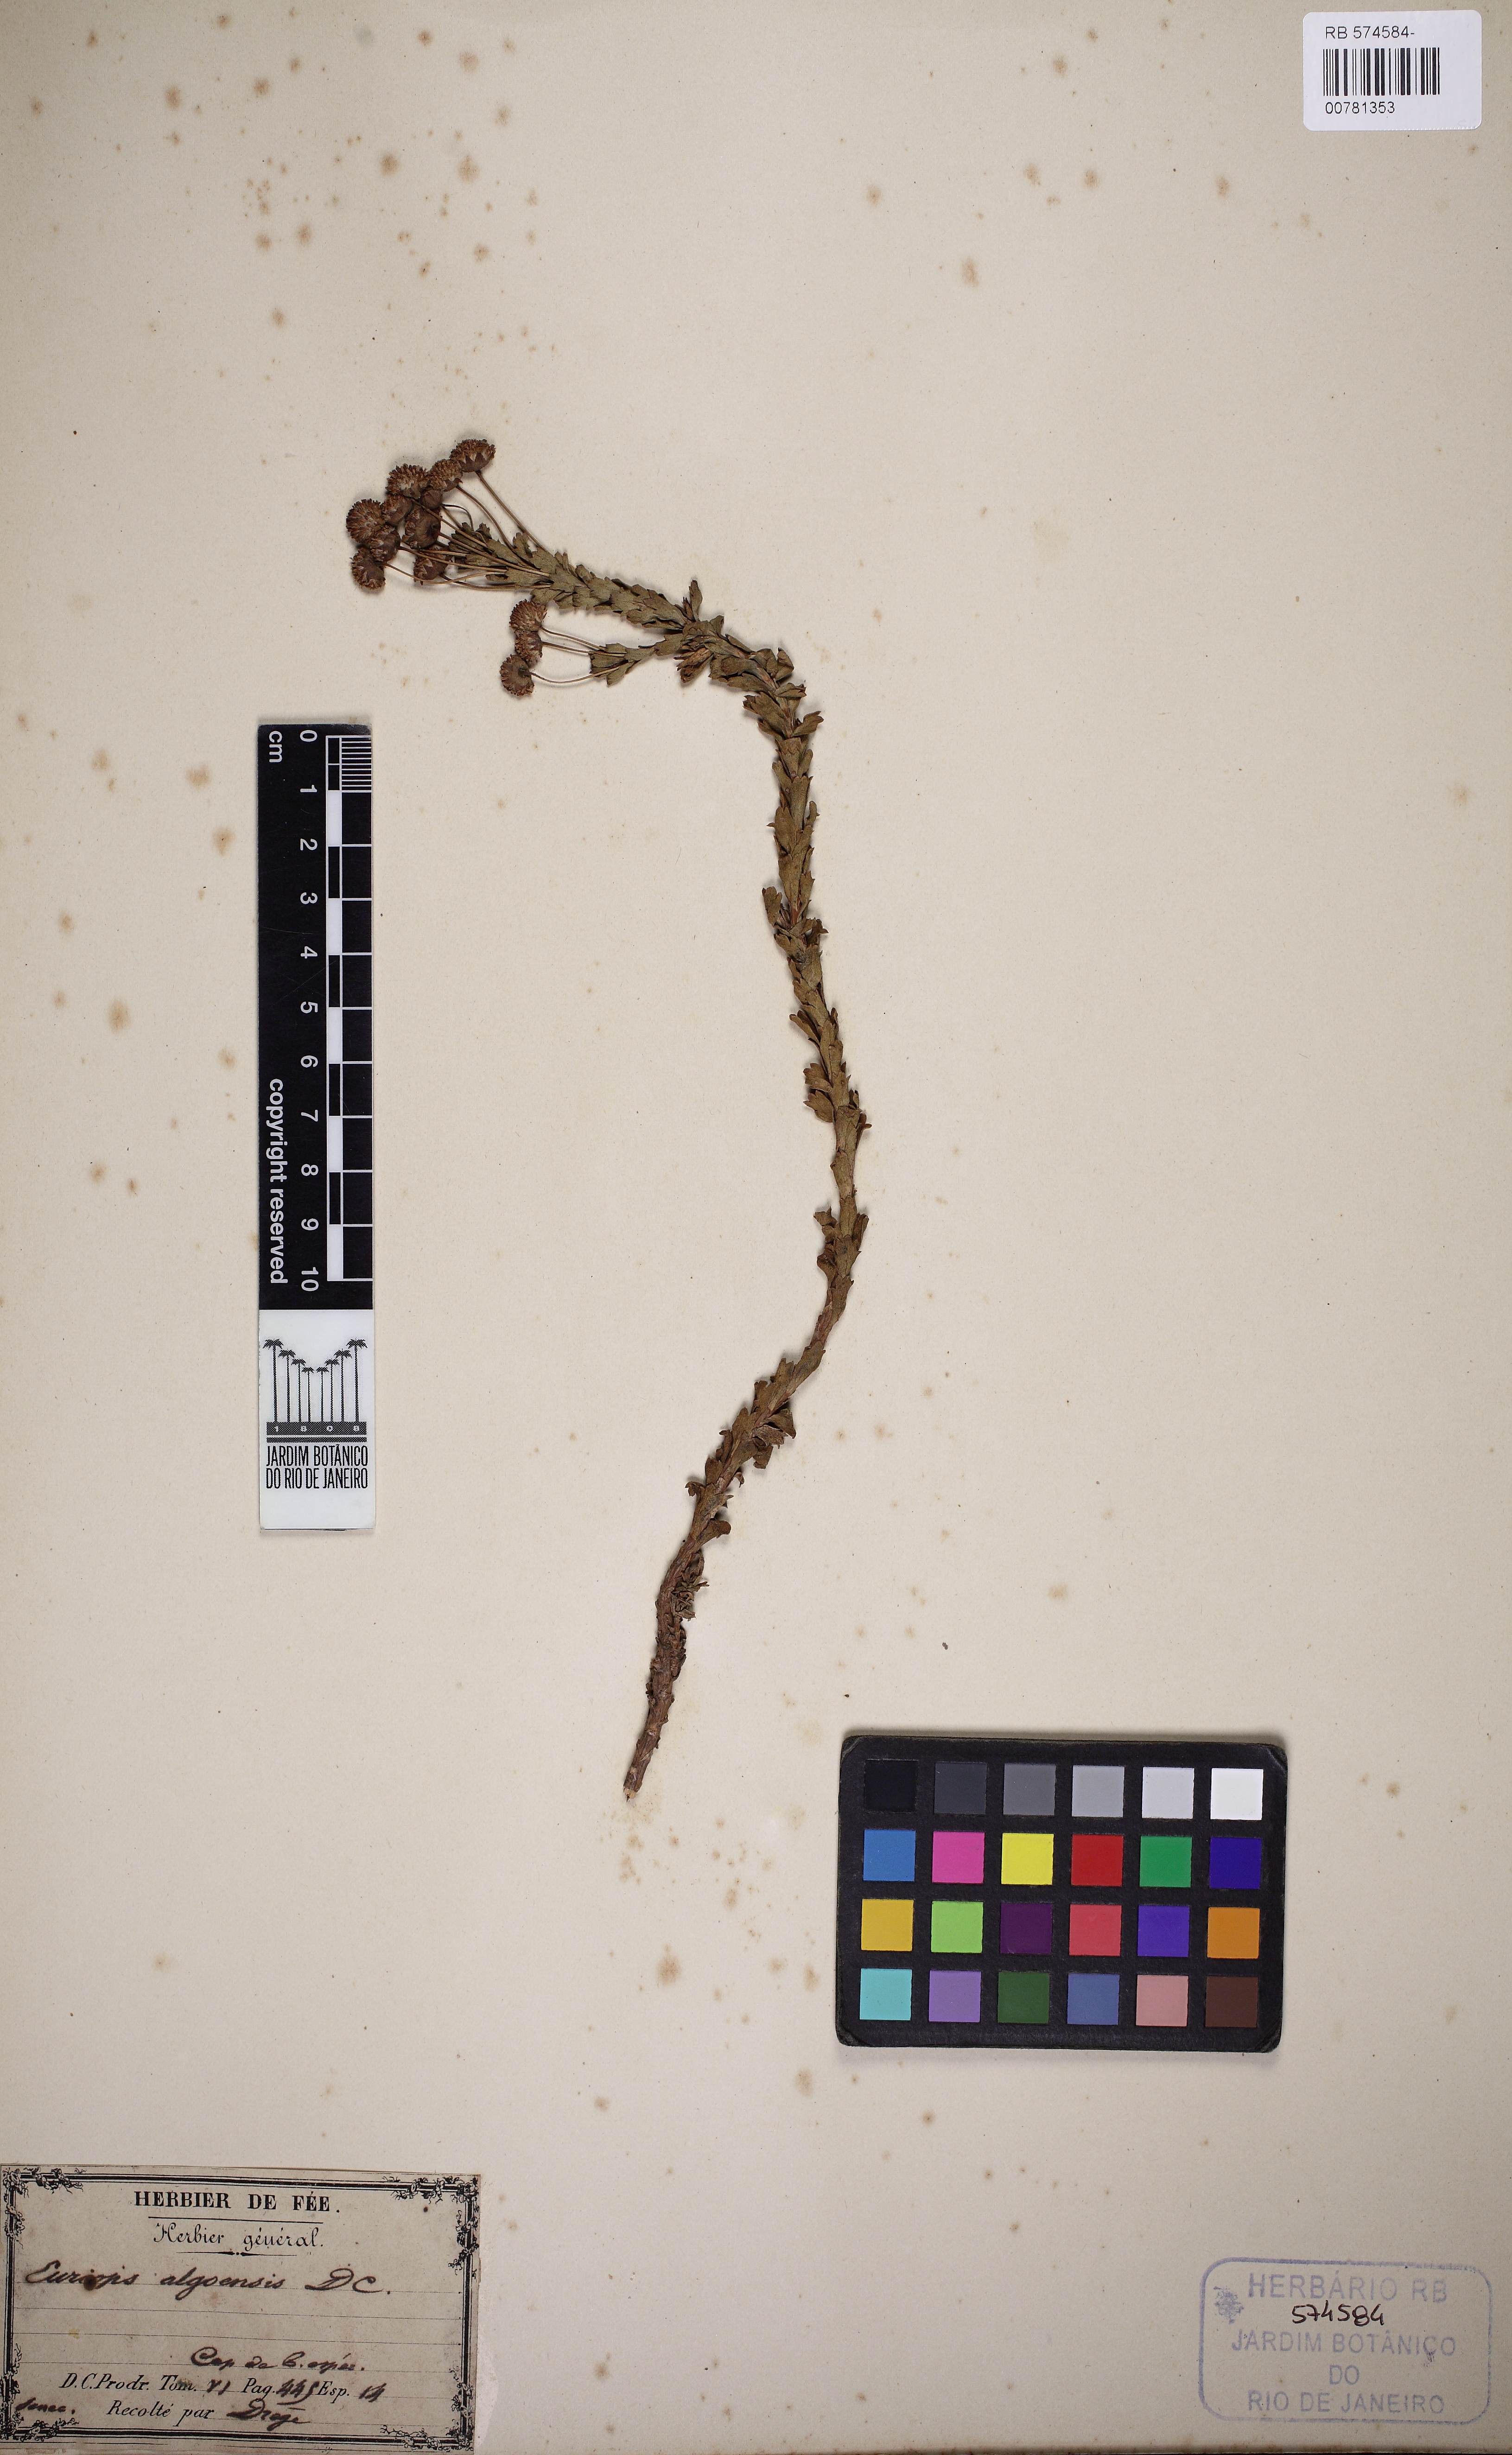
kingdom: Plantae
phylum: Tracheophyta
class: Magnoliopsida
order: Asterales
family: Asteraceae
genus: Euryops
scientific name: Euryops algoensis
